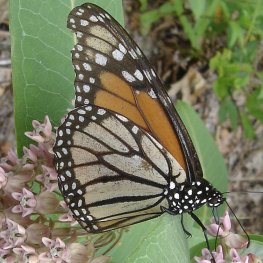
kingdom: Animalia
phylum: Arthropoda
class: Insecta
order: Lepidoptera
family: Nymphalidae
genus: Danaus
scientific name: Danaus plexippus
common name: Monarch
